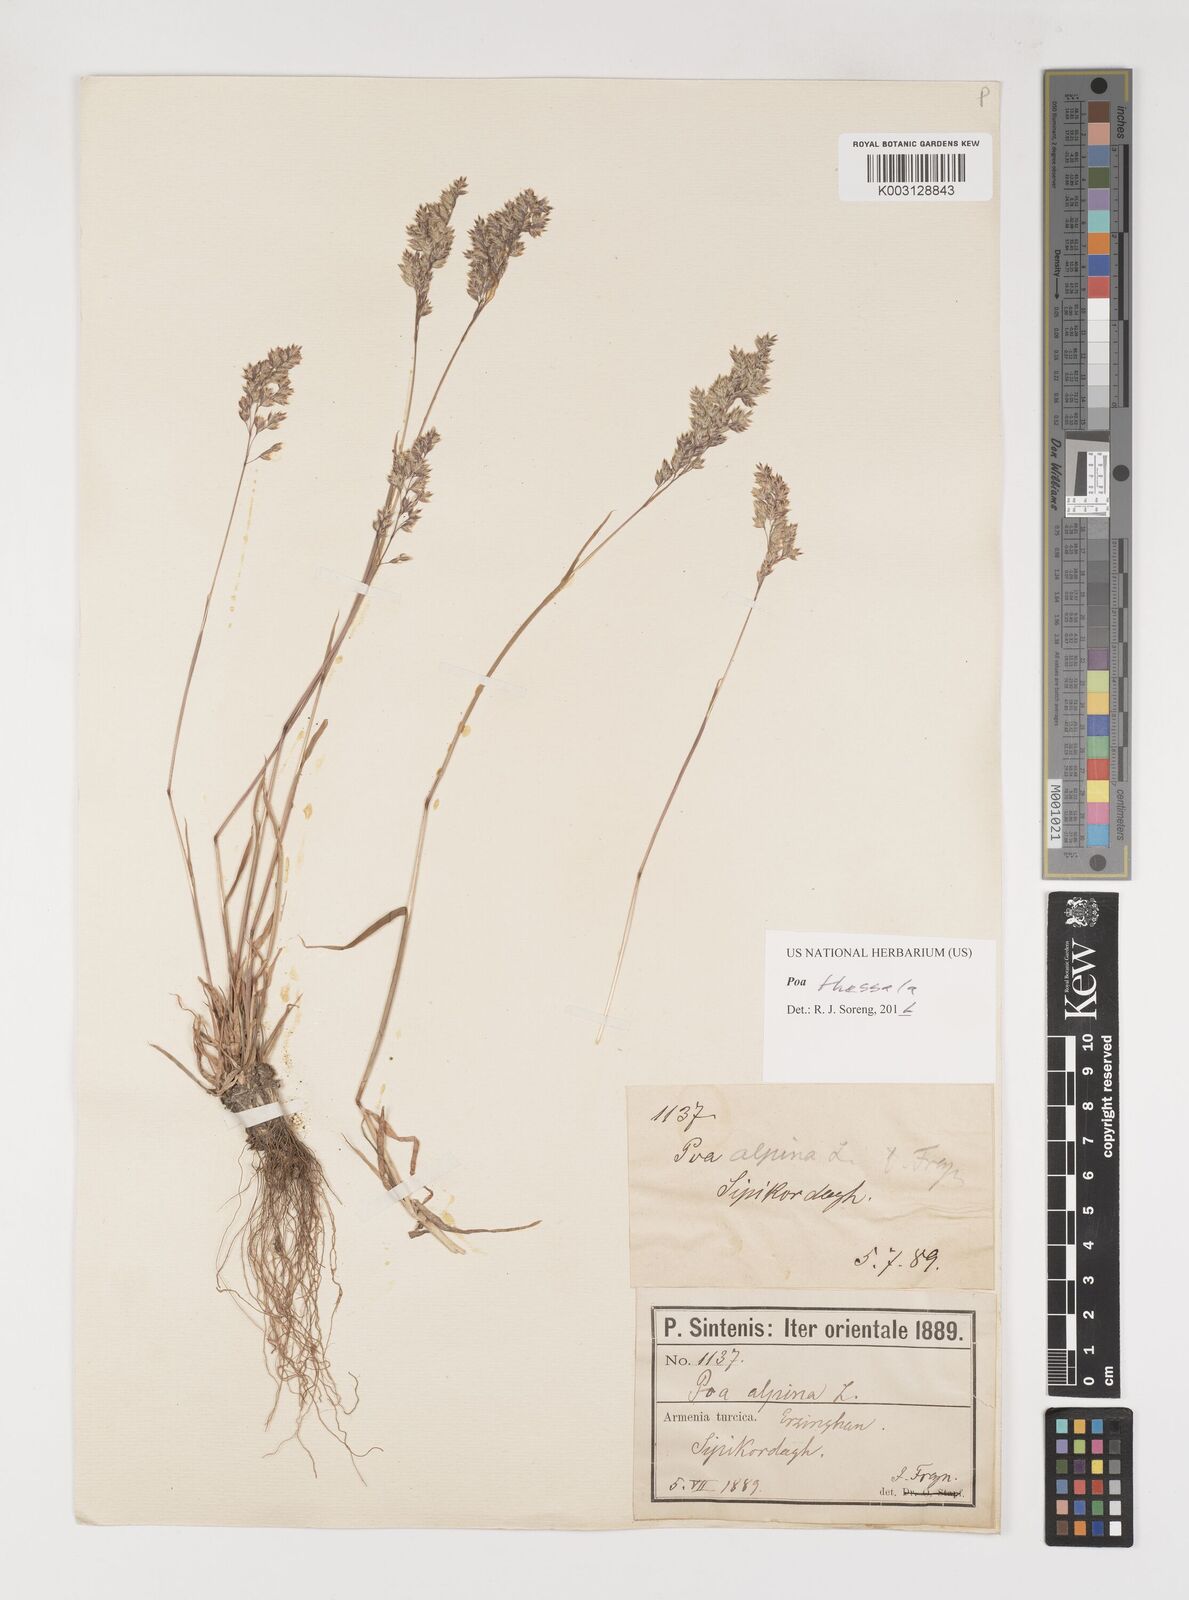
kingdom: Plantae
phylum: Tracheophyta
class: Liliopsida
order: Poales
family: Poaceae
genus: Poa
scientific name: Poa thessala
